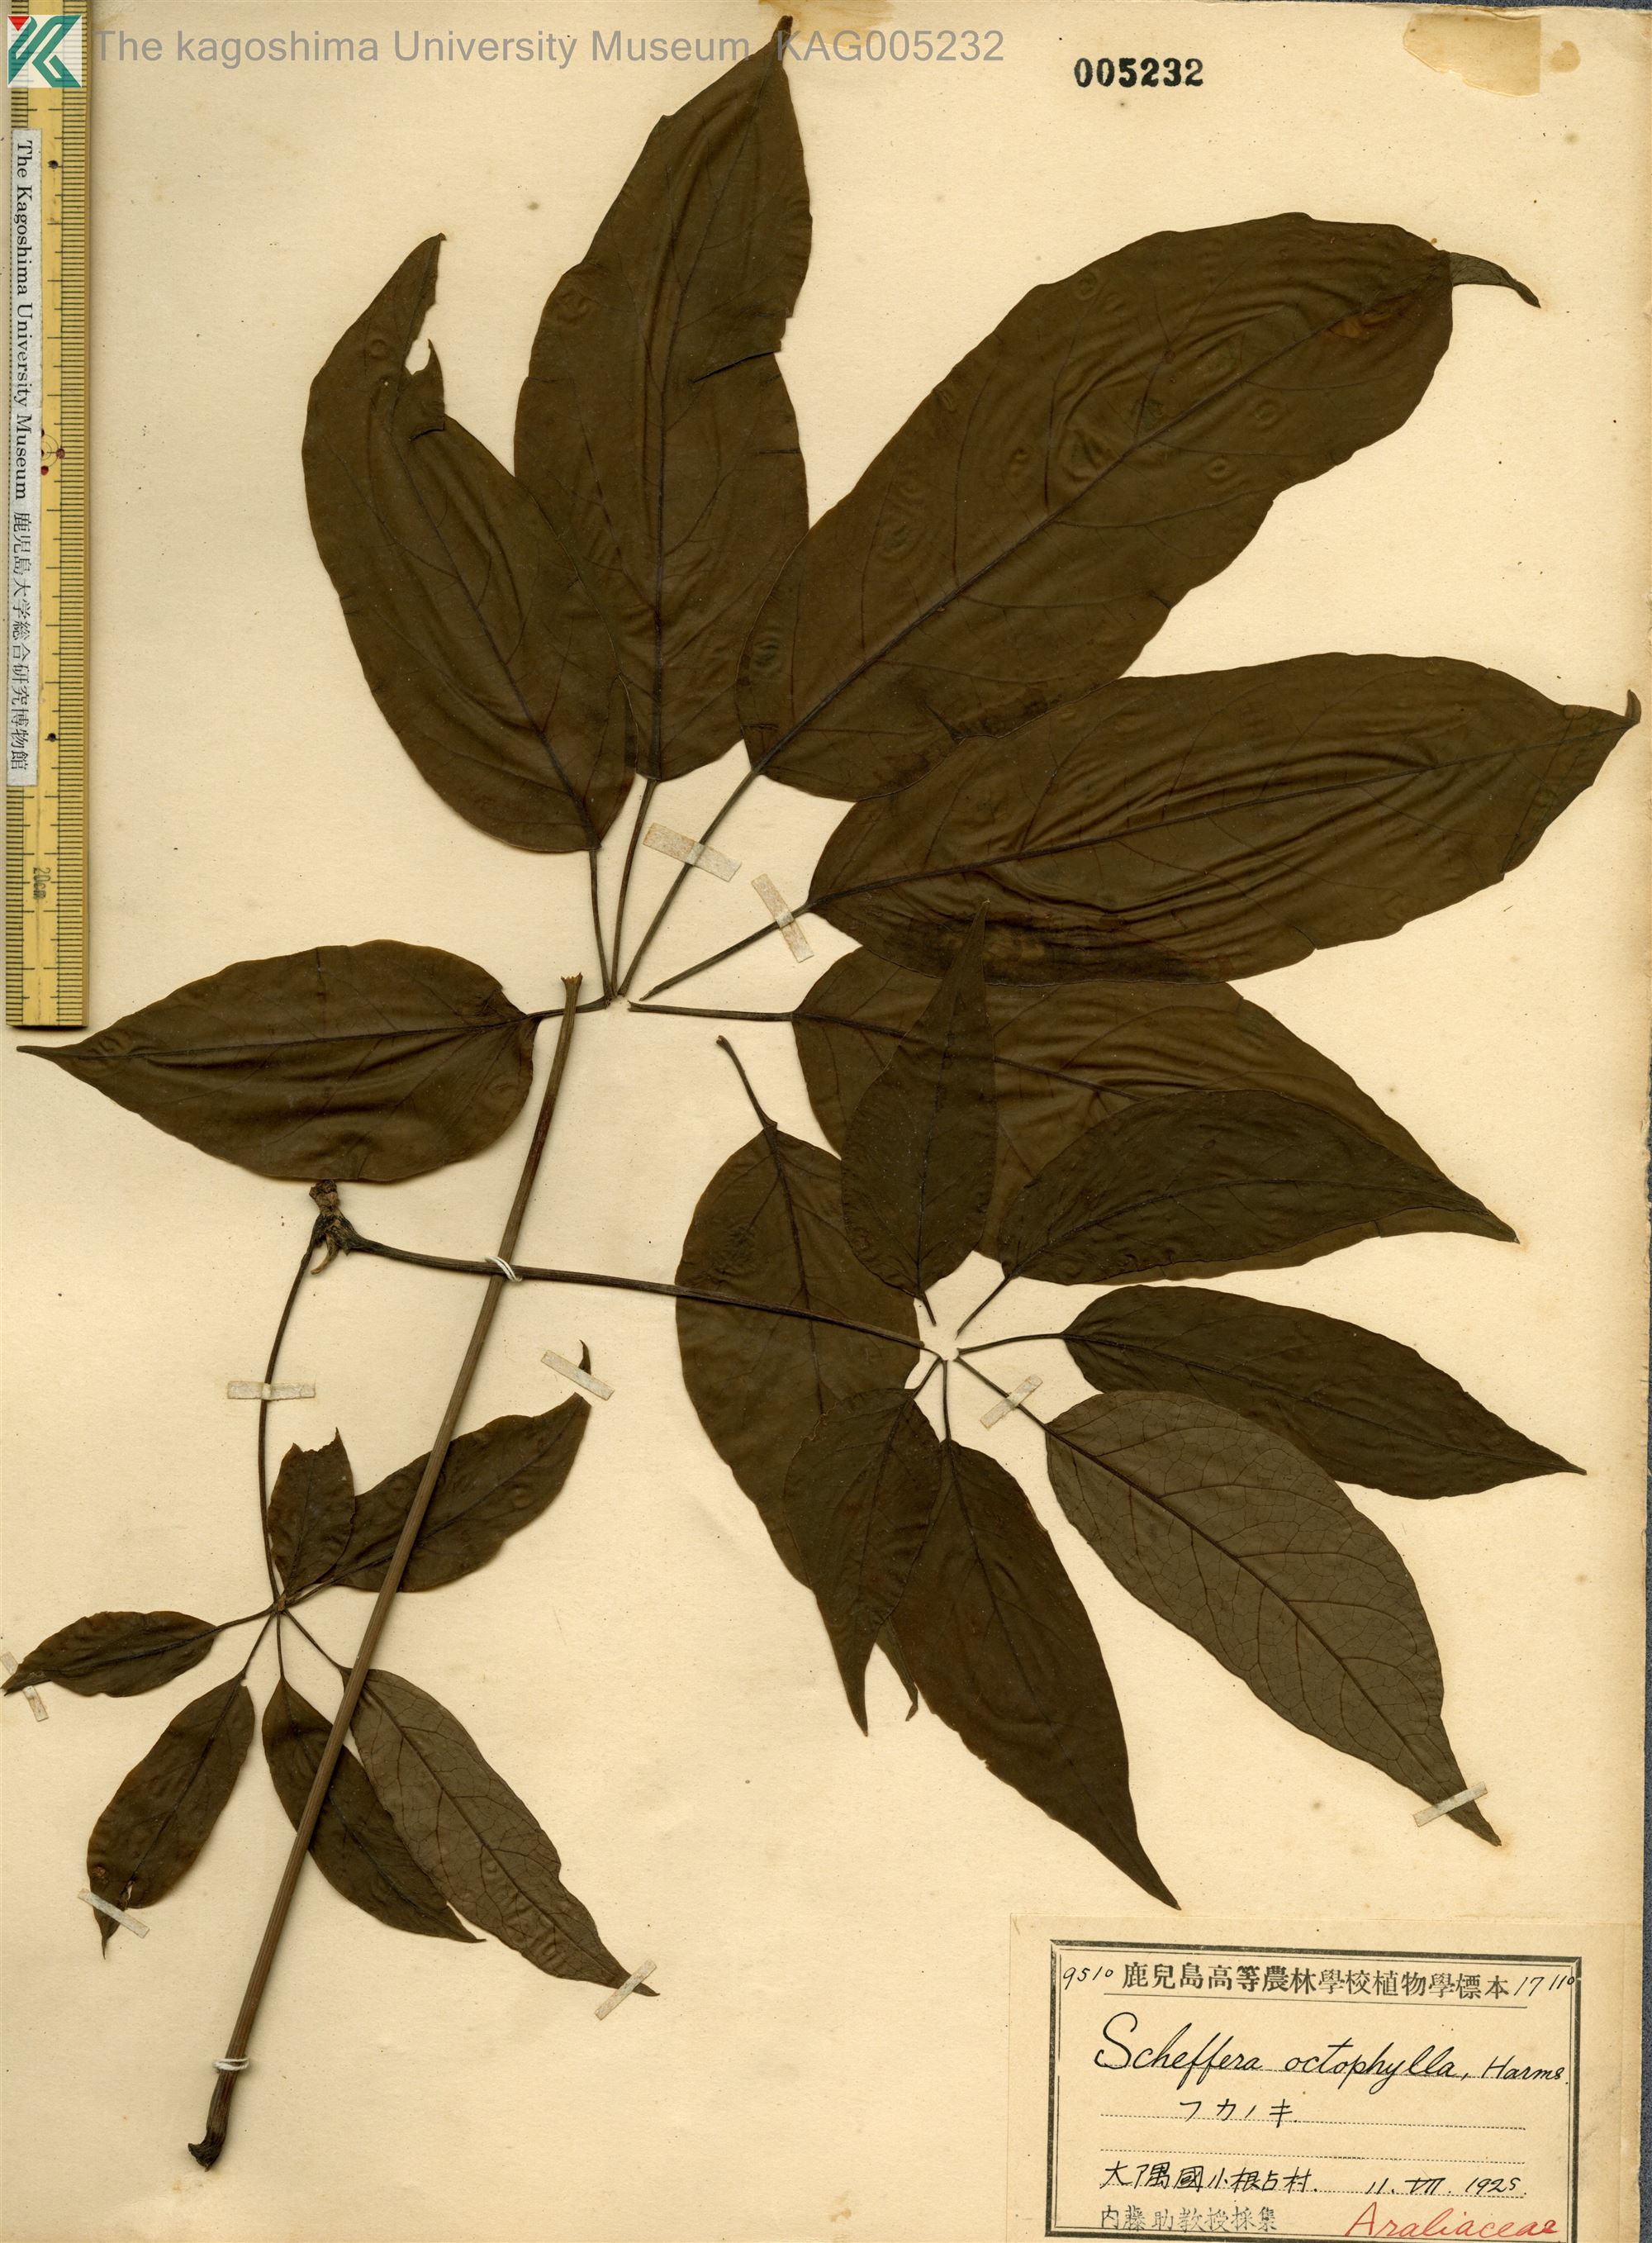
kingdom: Plantae
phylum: Tracheophyta
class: Magnoliopsida
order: Apiales
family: Araliaceae
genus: Heptapleurum
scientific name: Heptapleurum heptaphyllum
